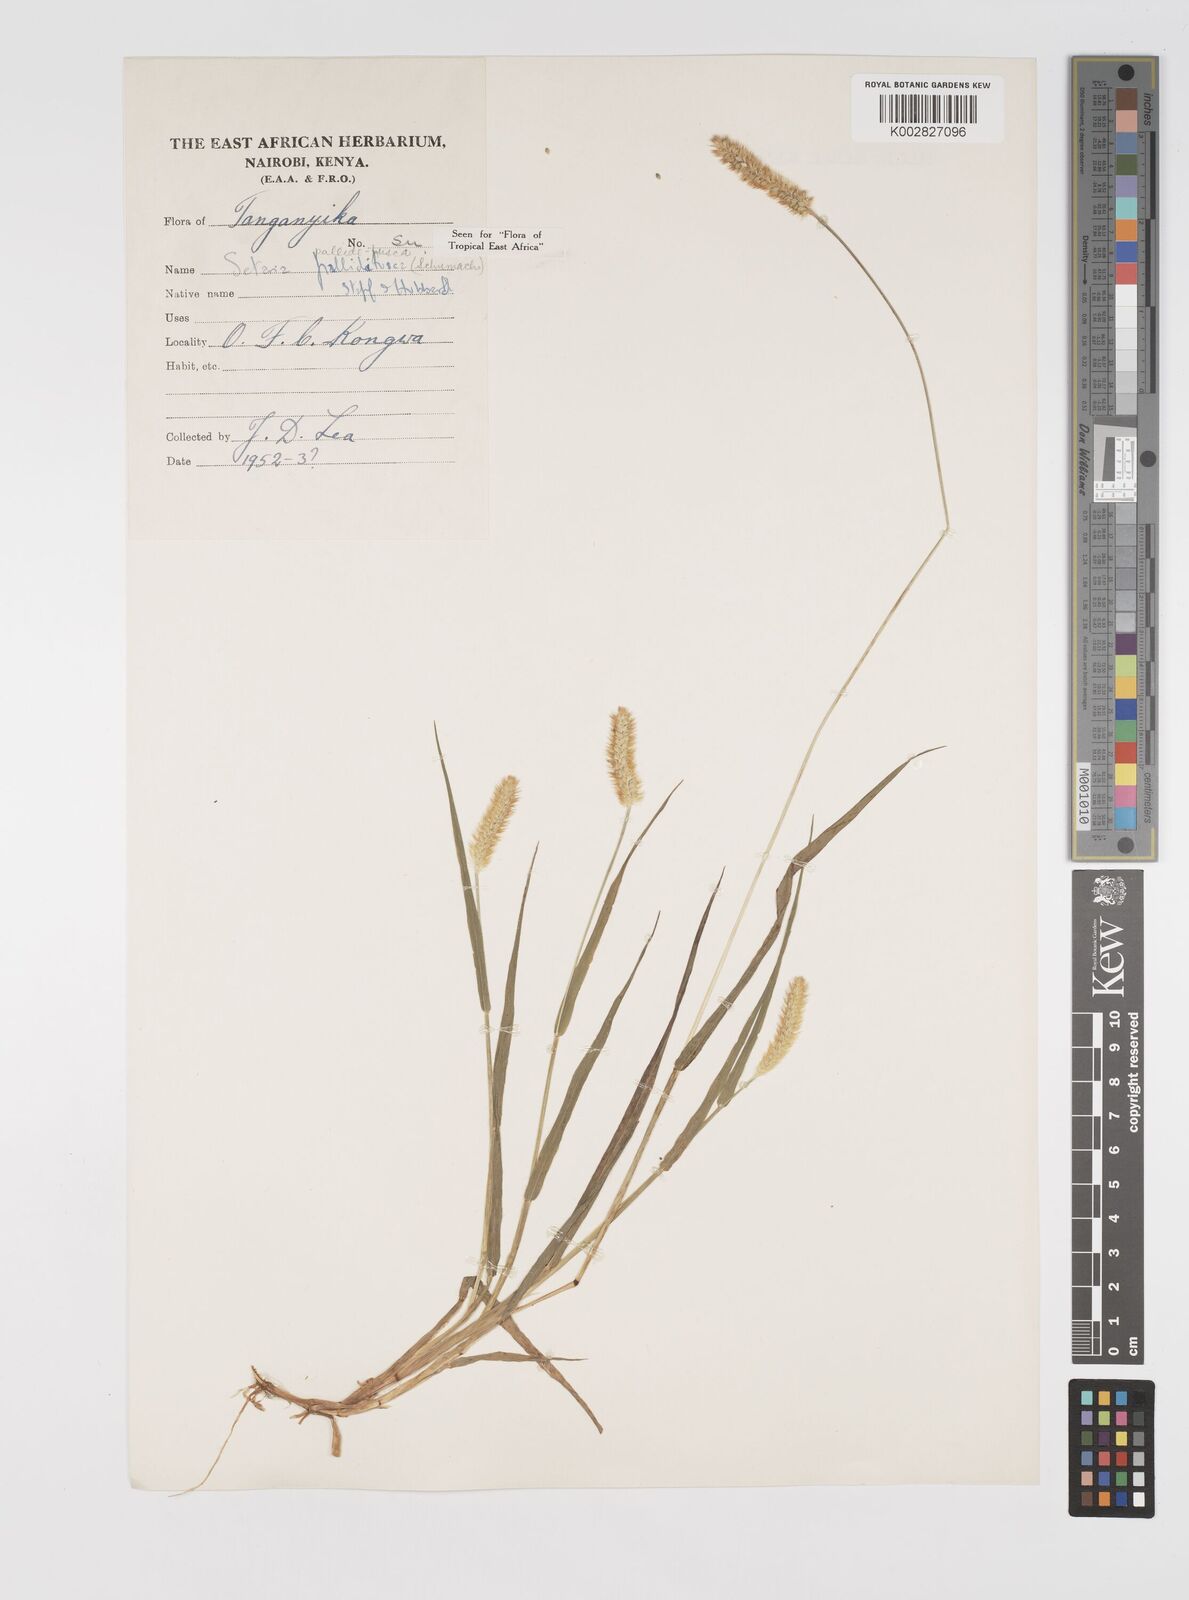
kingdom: Plantae
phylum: Tracheophyta
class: Liliopsida
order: Poales
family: Poaceae
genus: Setaria
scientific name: Setaria pumila
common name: Yellow bristle-grass
